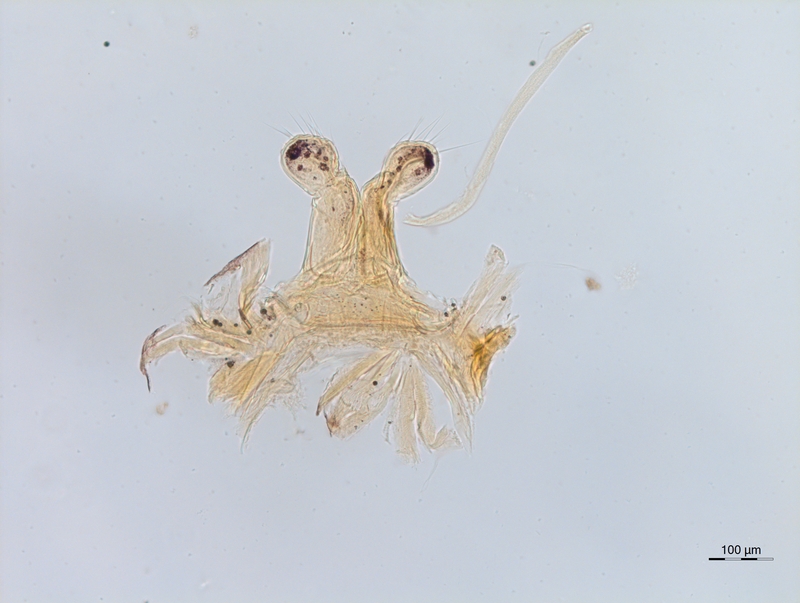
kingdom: Animalia
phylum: Arthropoda
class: Diplopoda
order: Chordeumatida
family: Attemsiidae
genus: Syngonopodium
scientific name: Syngonopodium cornutum
